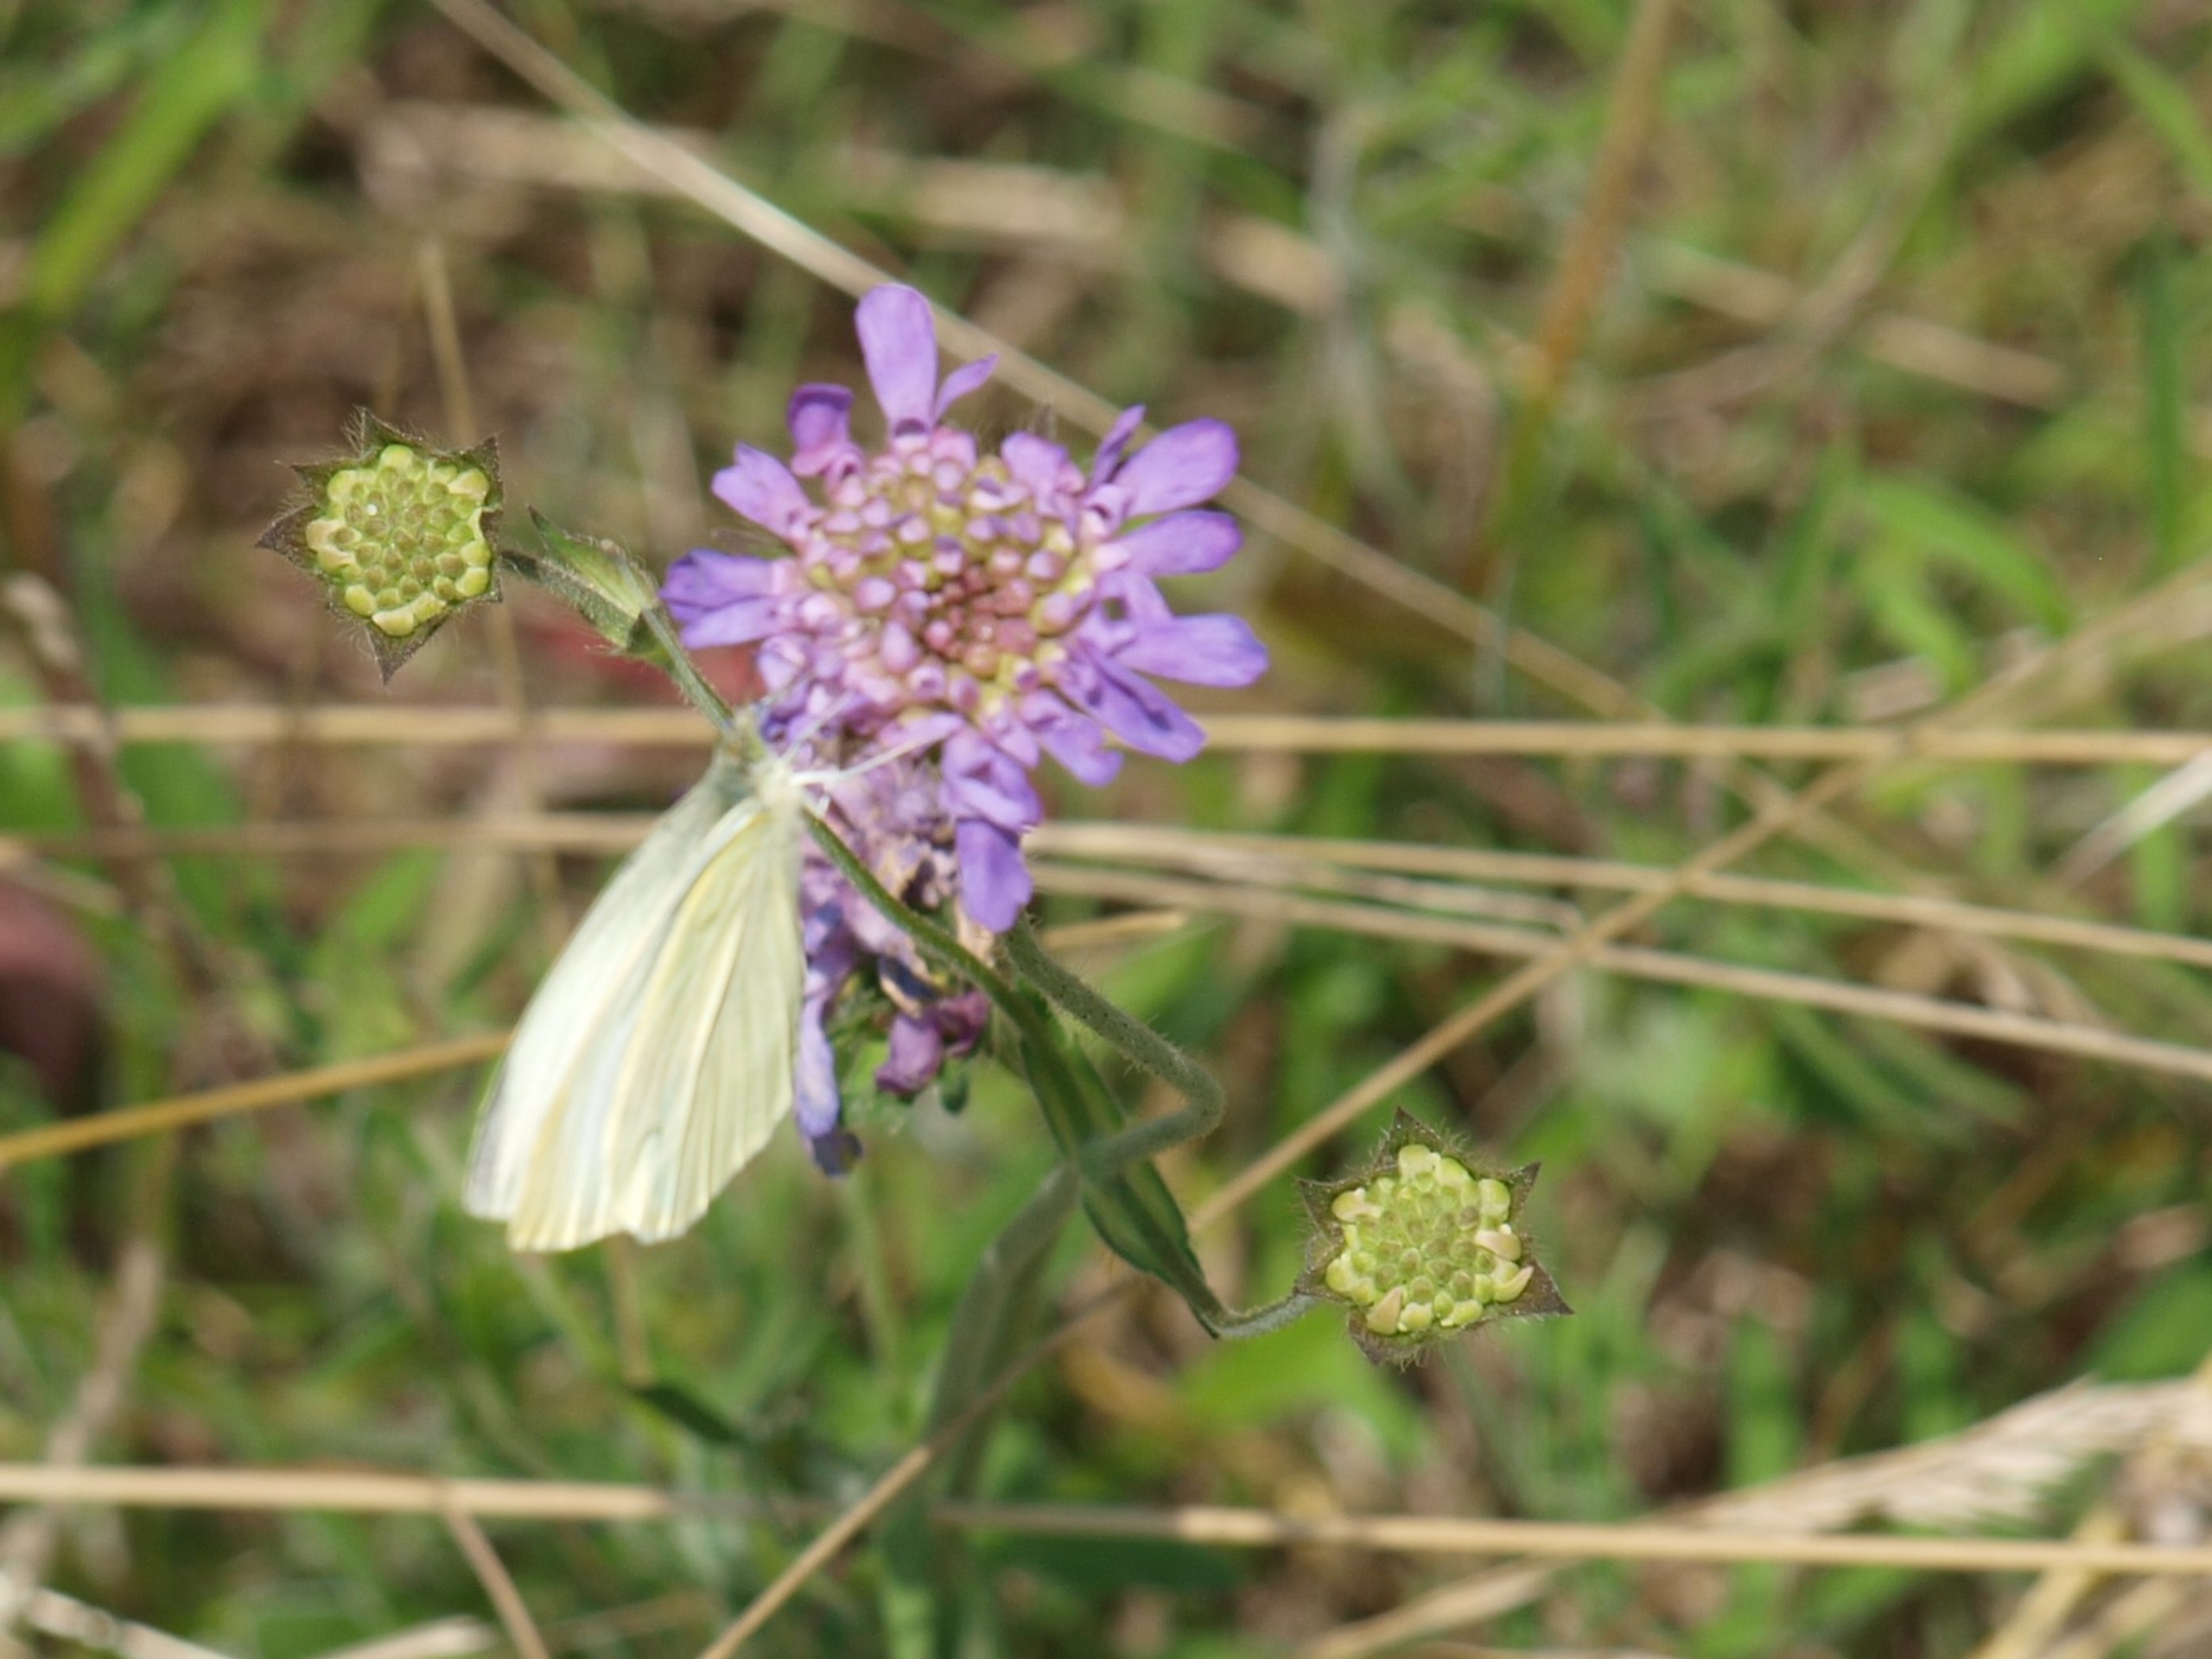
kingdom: Animalia
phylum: Arthropoda
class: Insecta
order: Lepidoptera
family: Pieridae
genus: Pieris
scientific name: Pieris rapae
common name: Lille kålsommerfugl
